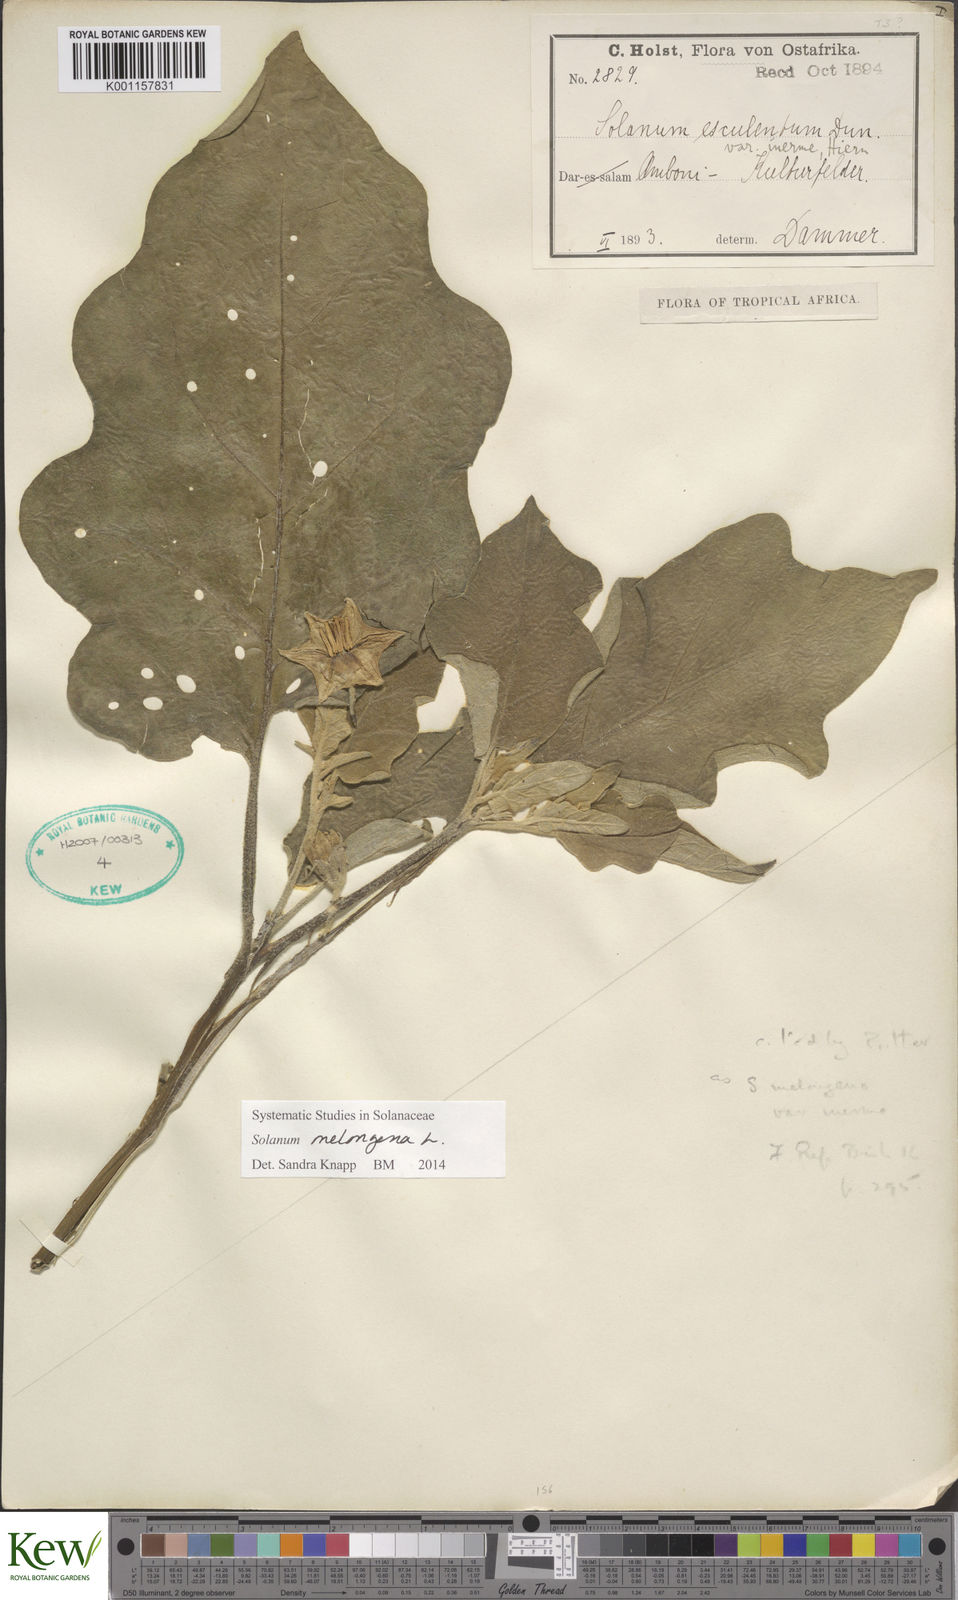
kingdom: Plantae
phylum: Tracheophyta
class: Magnoliopsida
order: Solanales
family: Solanaceae
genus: Solanum
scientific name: Solanum melongena
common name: Eggplant
